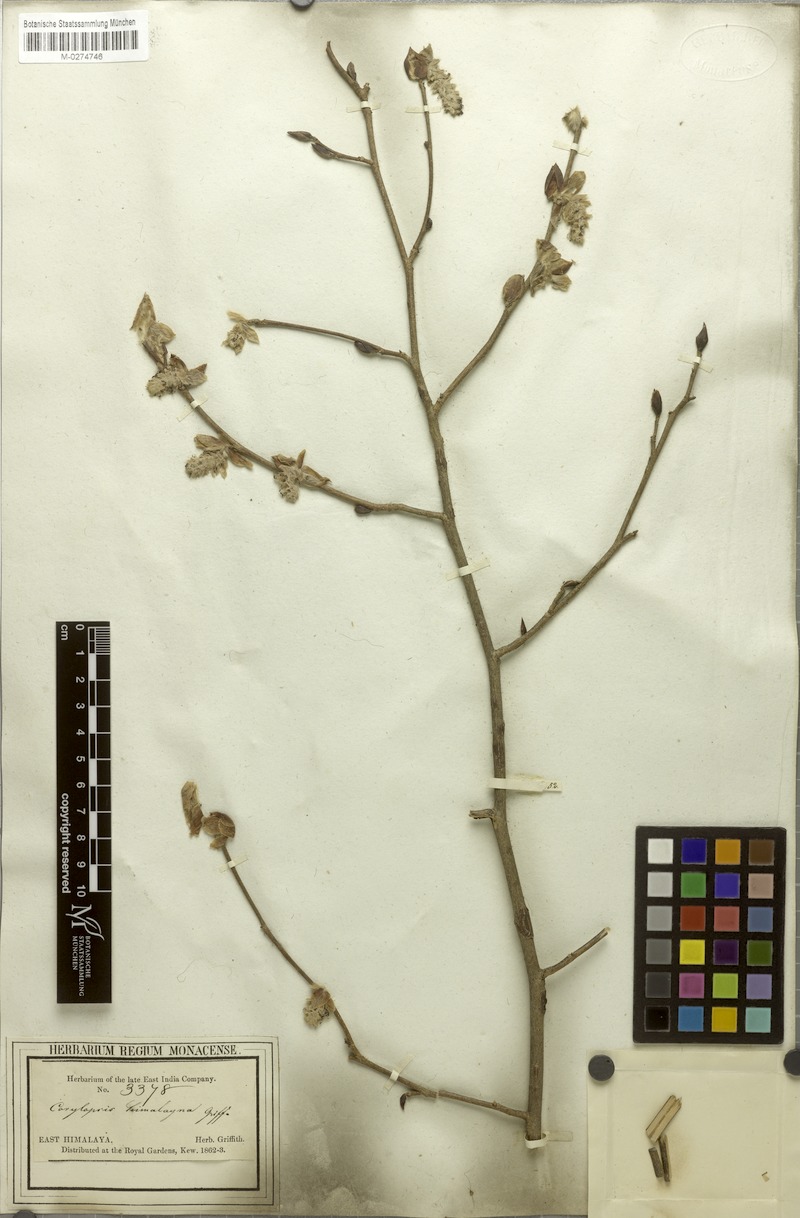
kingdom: Plantae
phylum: Tracheophyta
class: Magnoliopsida
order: Saxifragales
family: Hamamelidaceae
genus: Corylopsis
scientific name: Corylopsis himalayana
